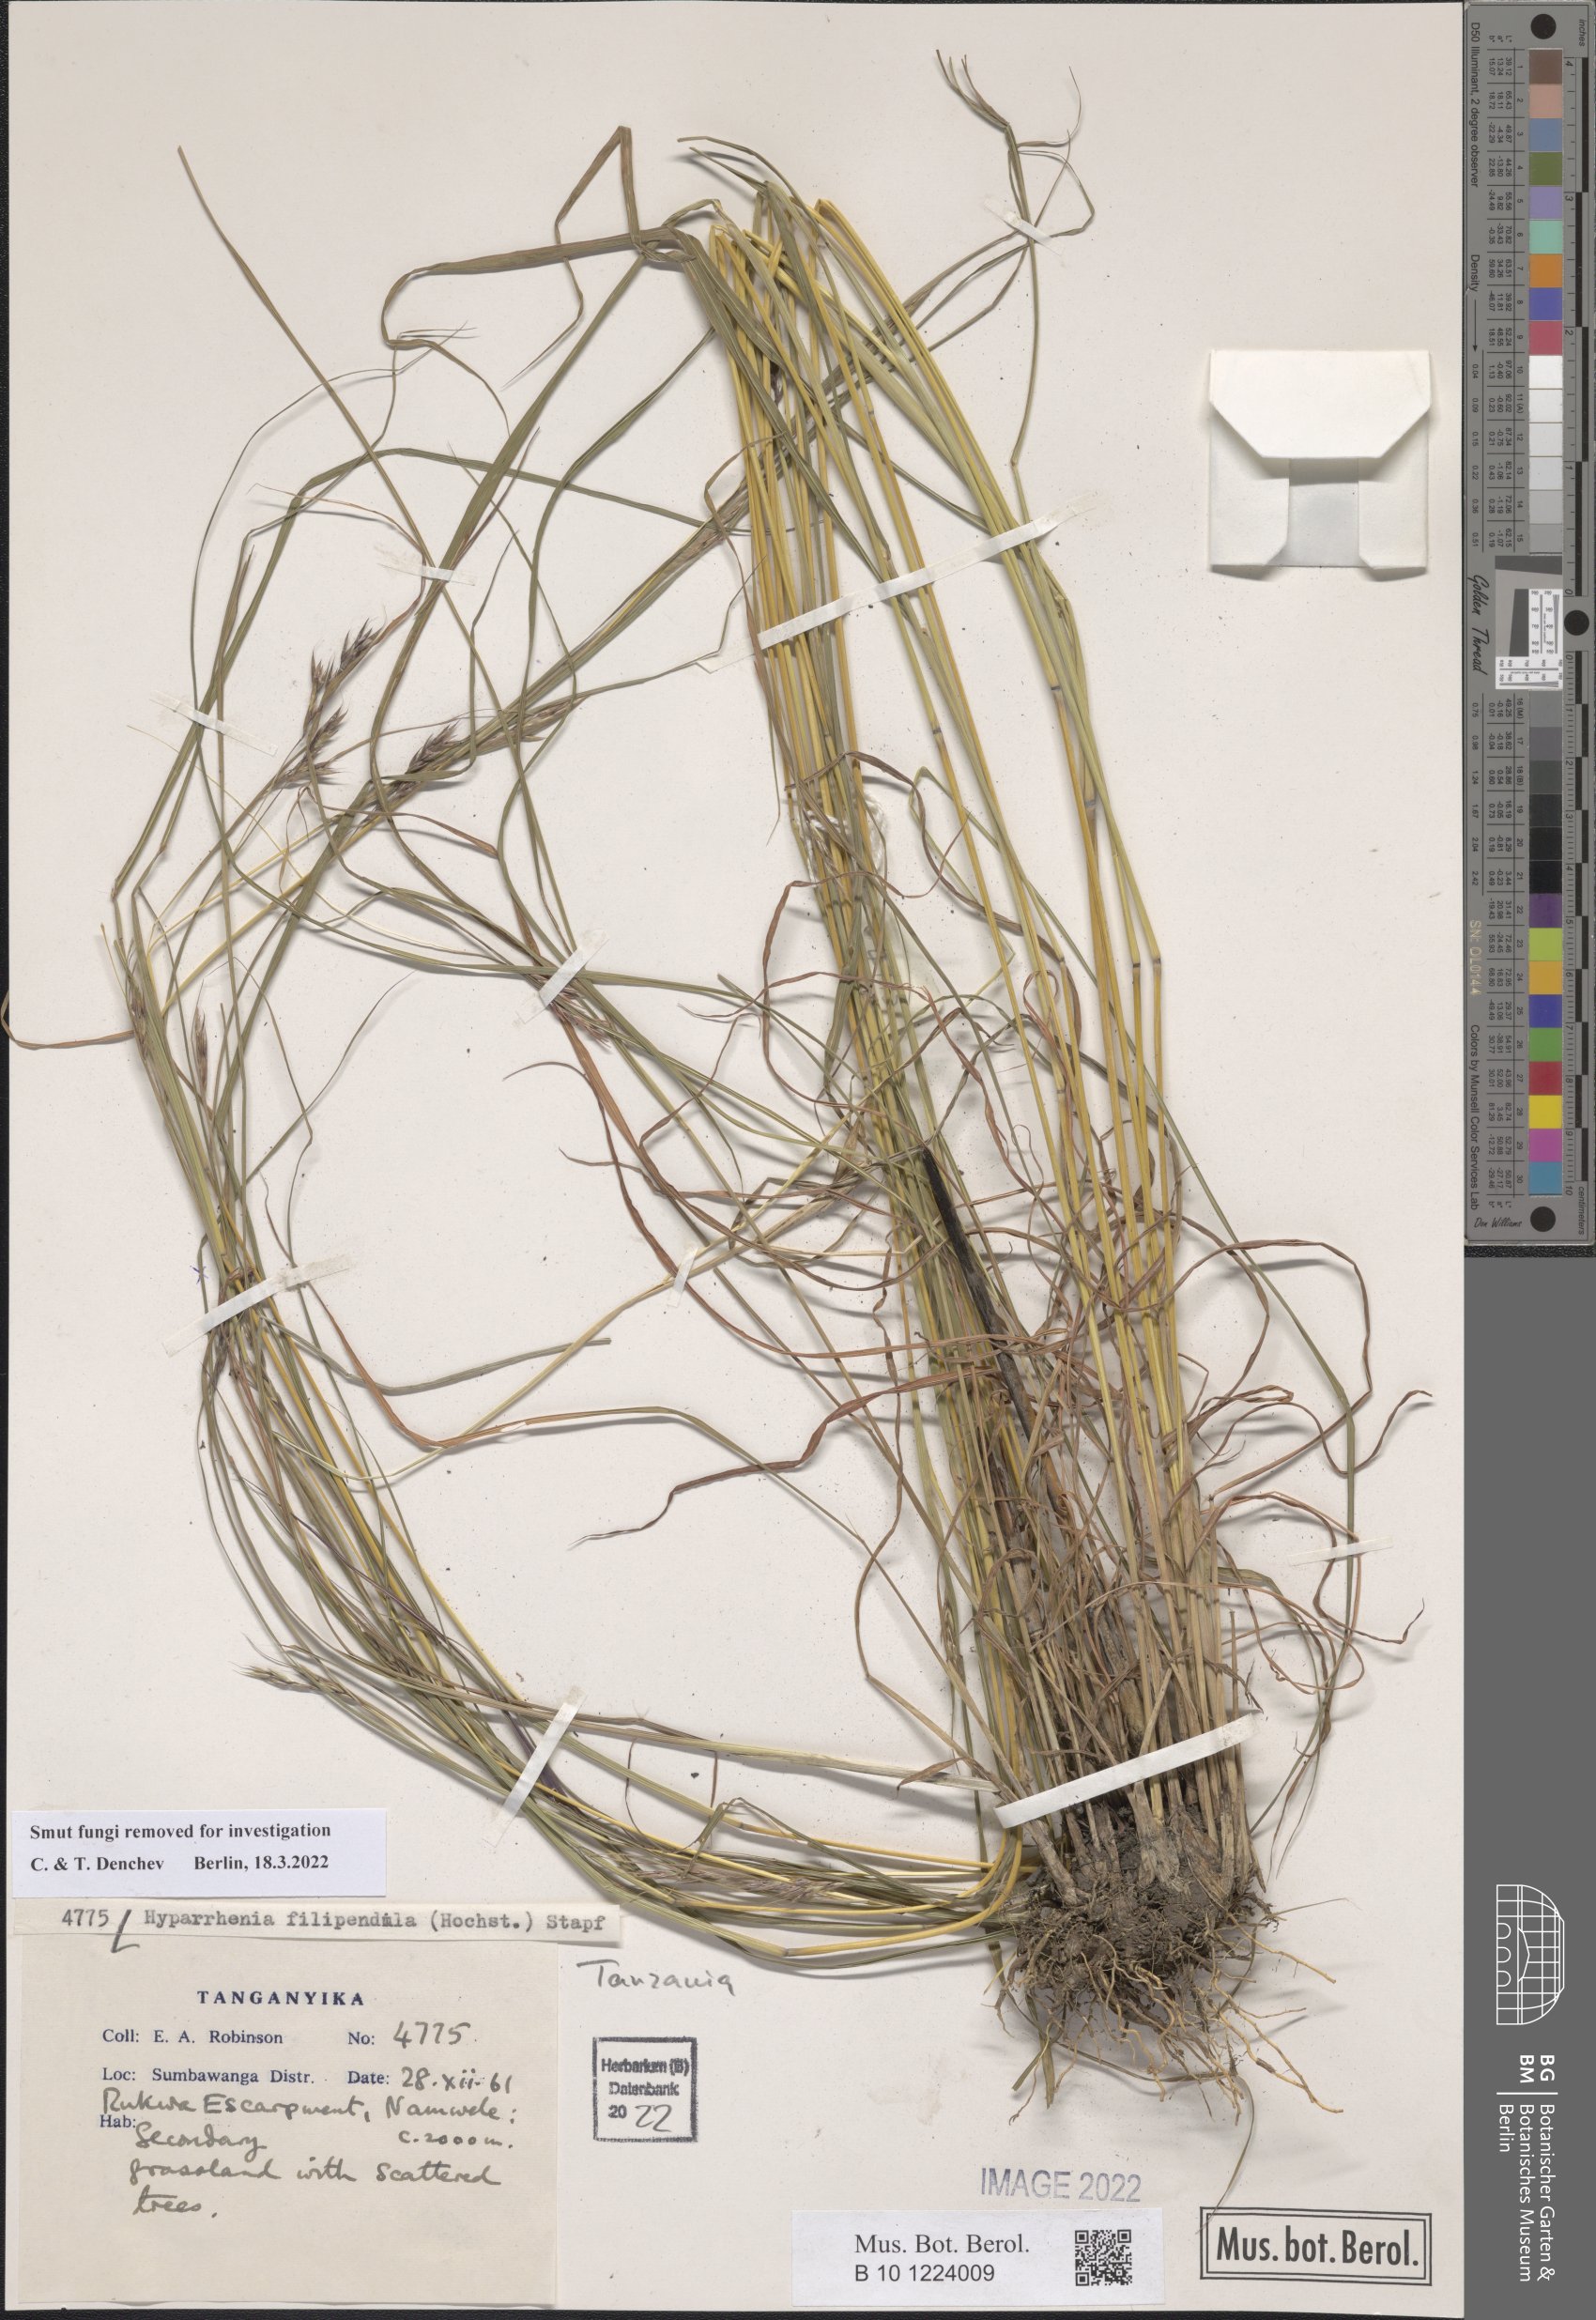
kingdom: Plantae
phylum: Tracheophyta
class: Liliopsida
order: Poales
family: Poaceae
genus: Hyparrhenia
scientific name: Hyparrhenia filipendula
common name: Tambookie grass
